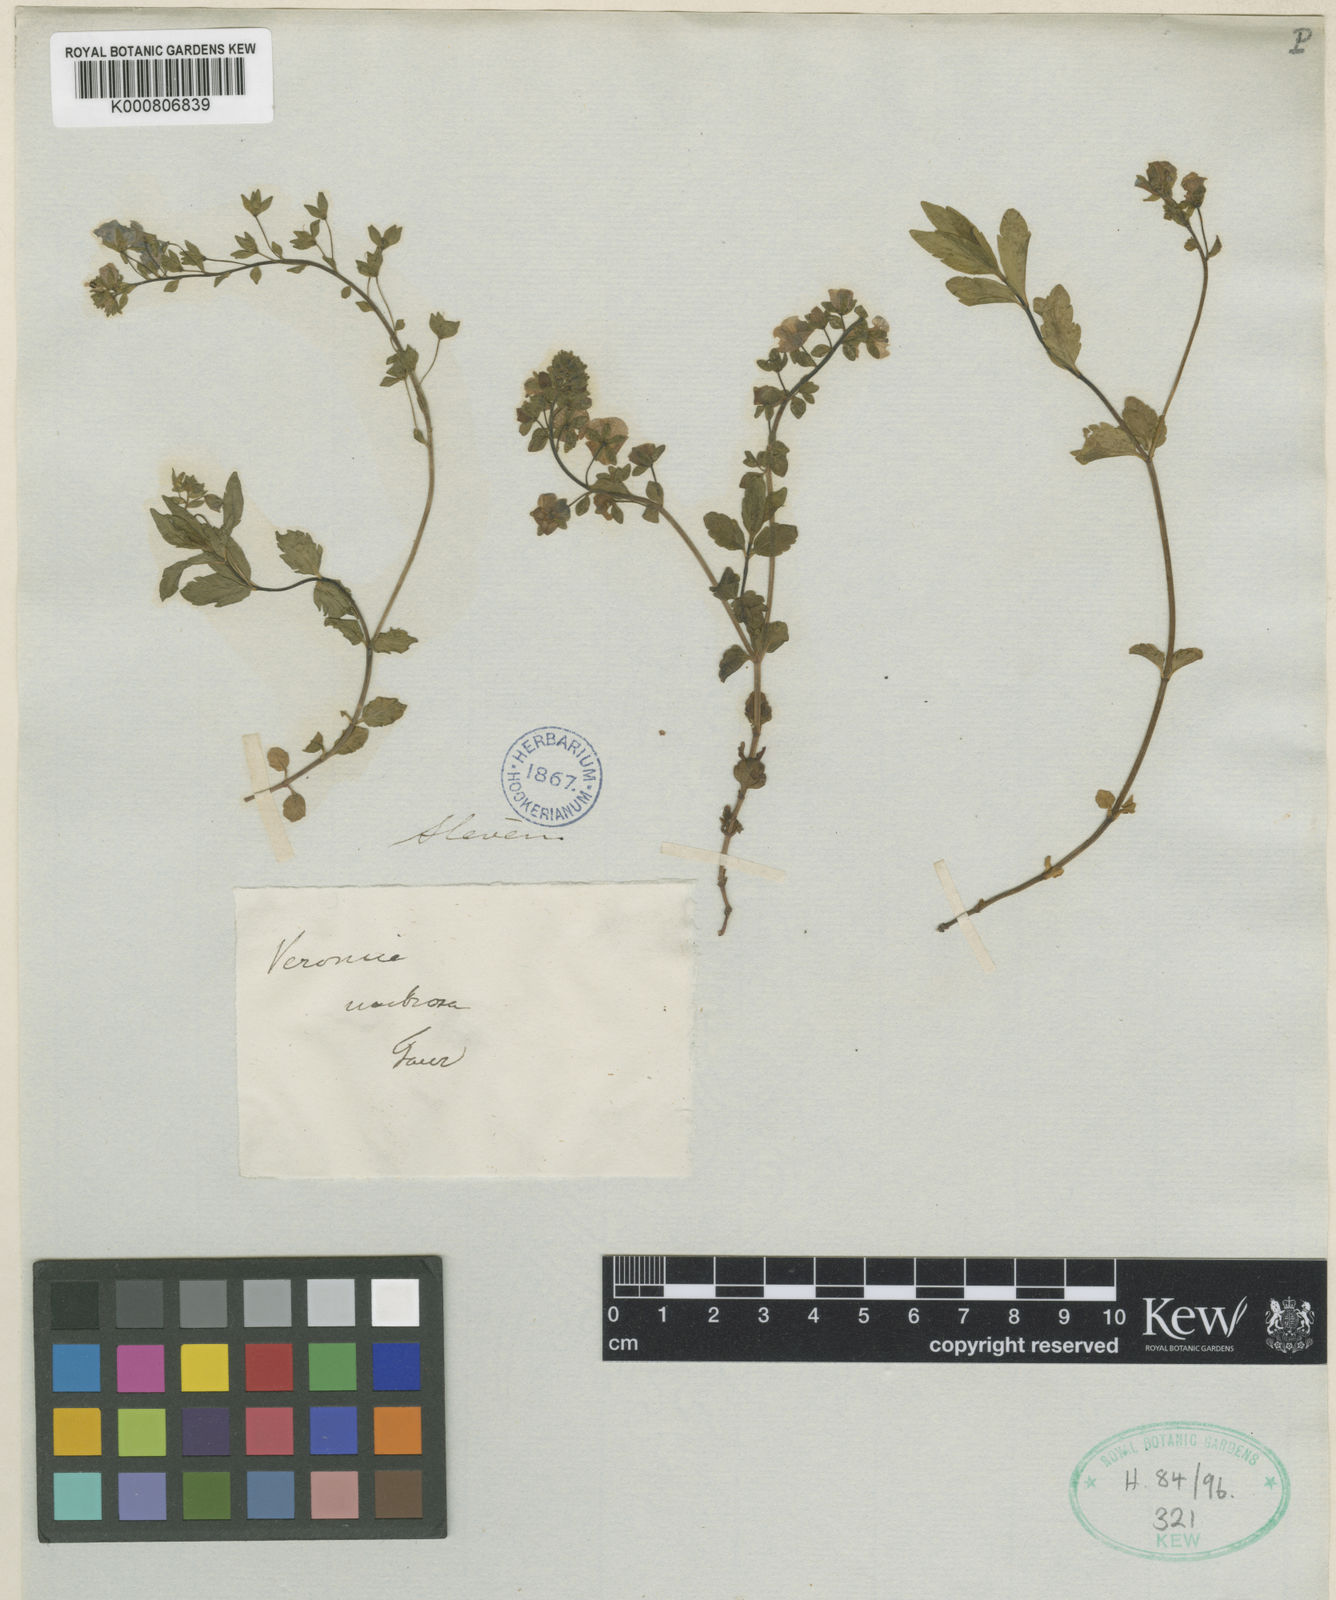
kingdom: Plantae
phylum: Tracheophyta
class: Magnoliopsida
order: Lamiales
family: Plantaginaceae
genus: Veronica
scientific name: Veronica peduncularis
